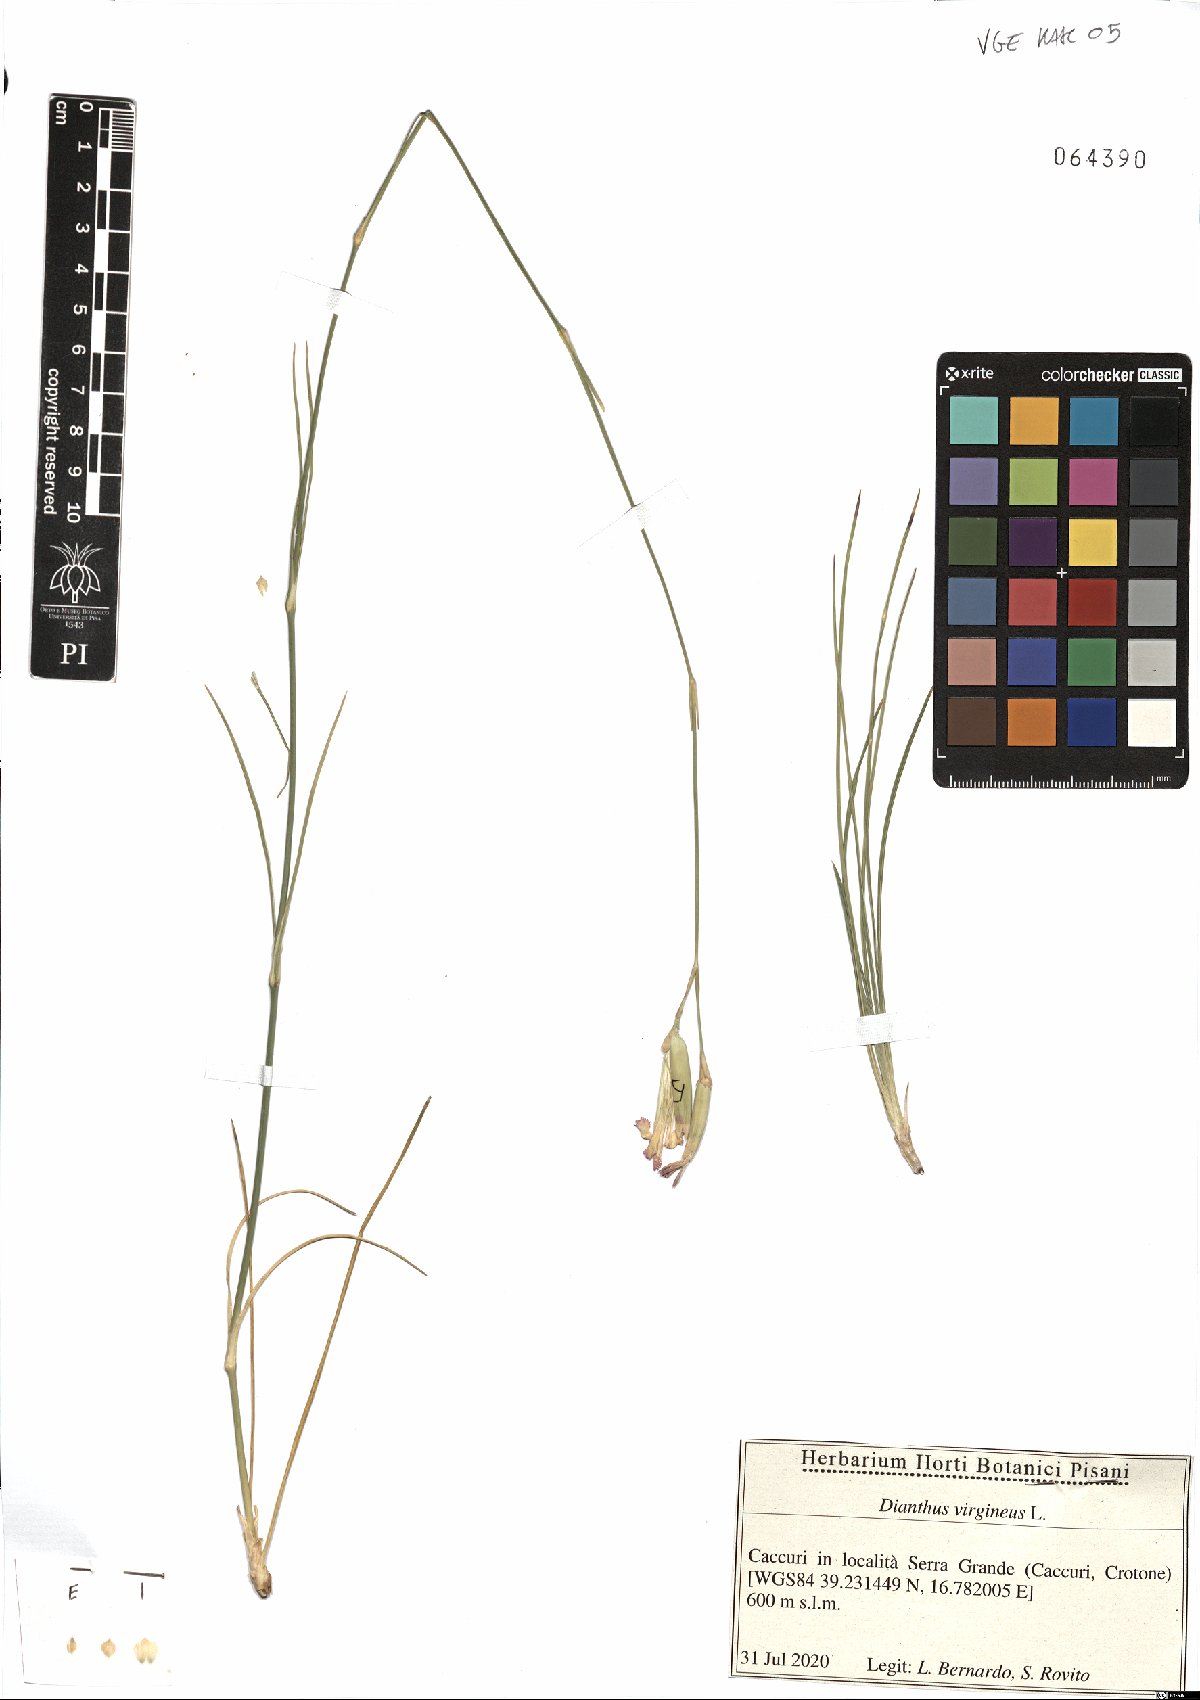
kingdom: Plantae
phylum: Tracheophyta
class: Magnoliopsida
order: Caryophyllales
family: Caryophyllaceae
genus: Dianthus
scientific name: Dianthus virgineus
